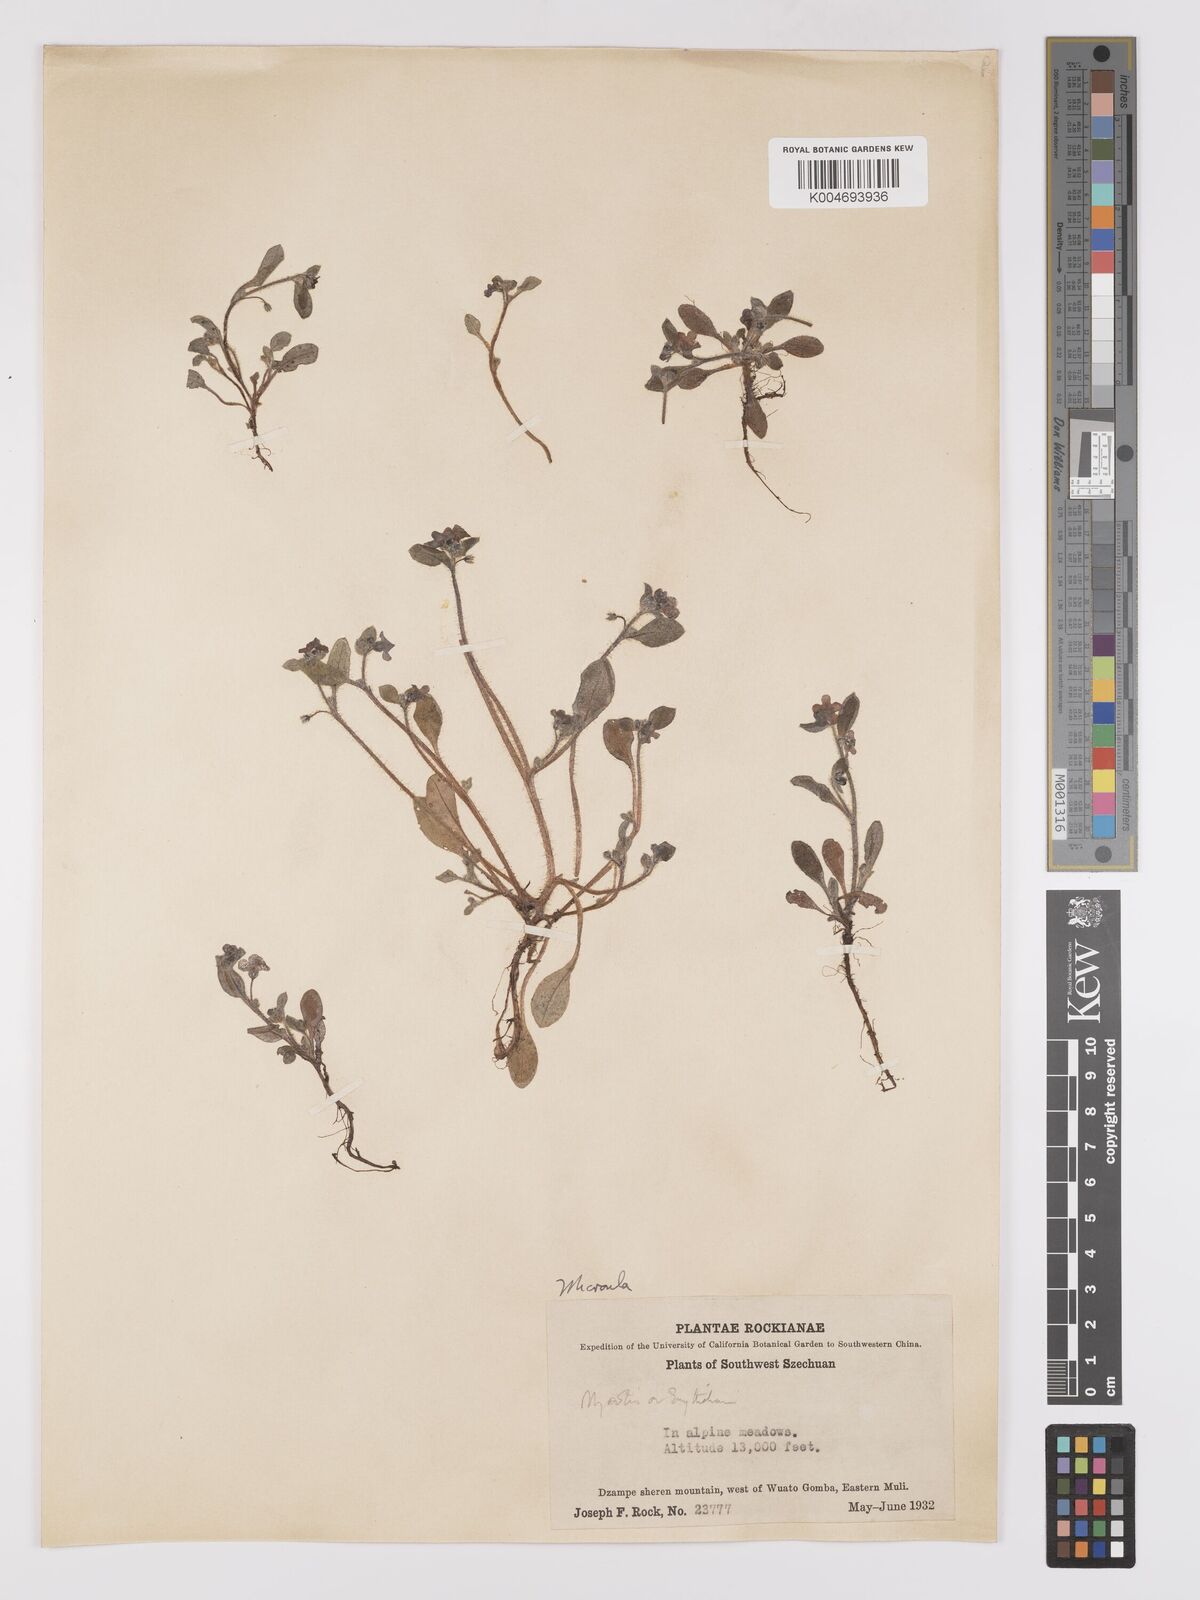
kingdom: Plantae
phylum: Tracheophyta
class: Magnoliopsida
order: Boraginales
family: Boraginaceae
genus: Microula
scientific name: Microula
